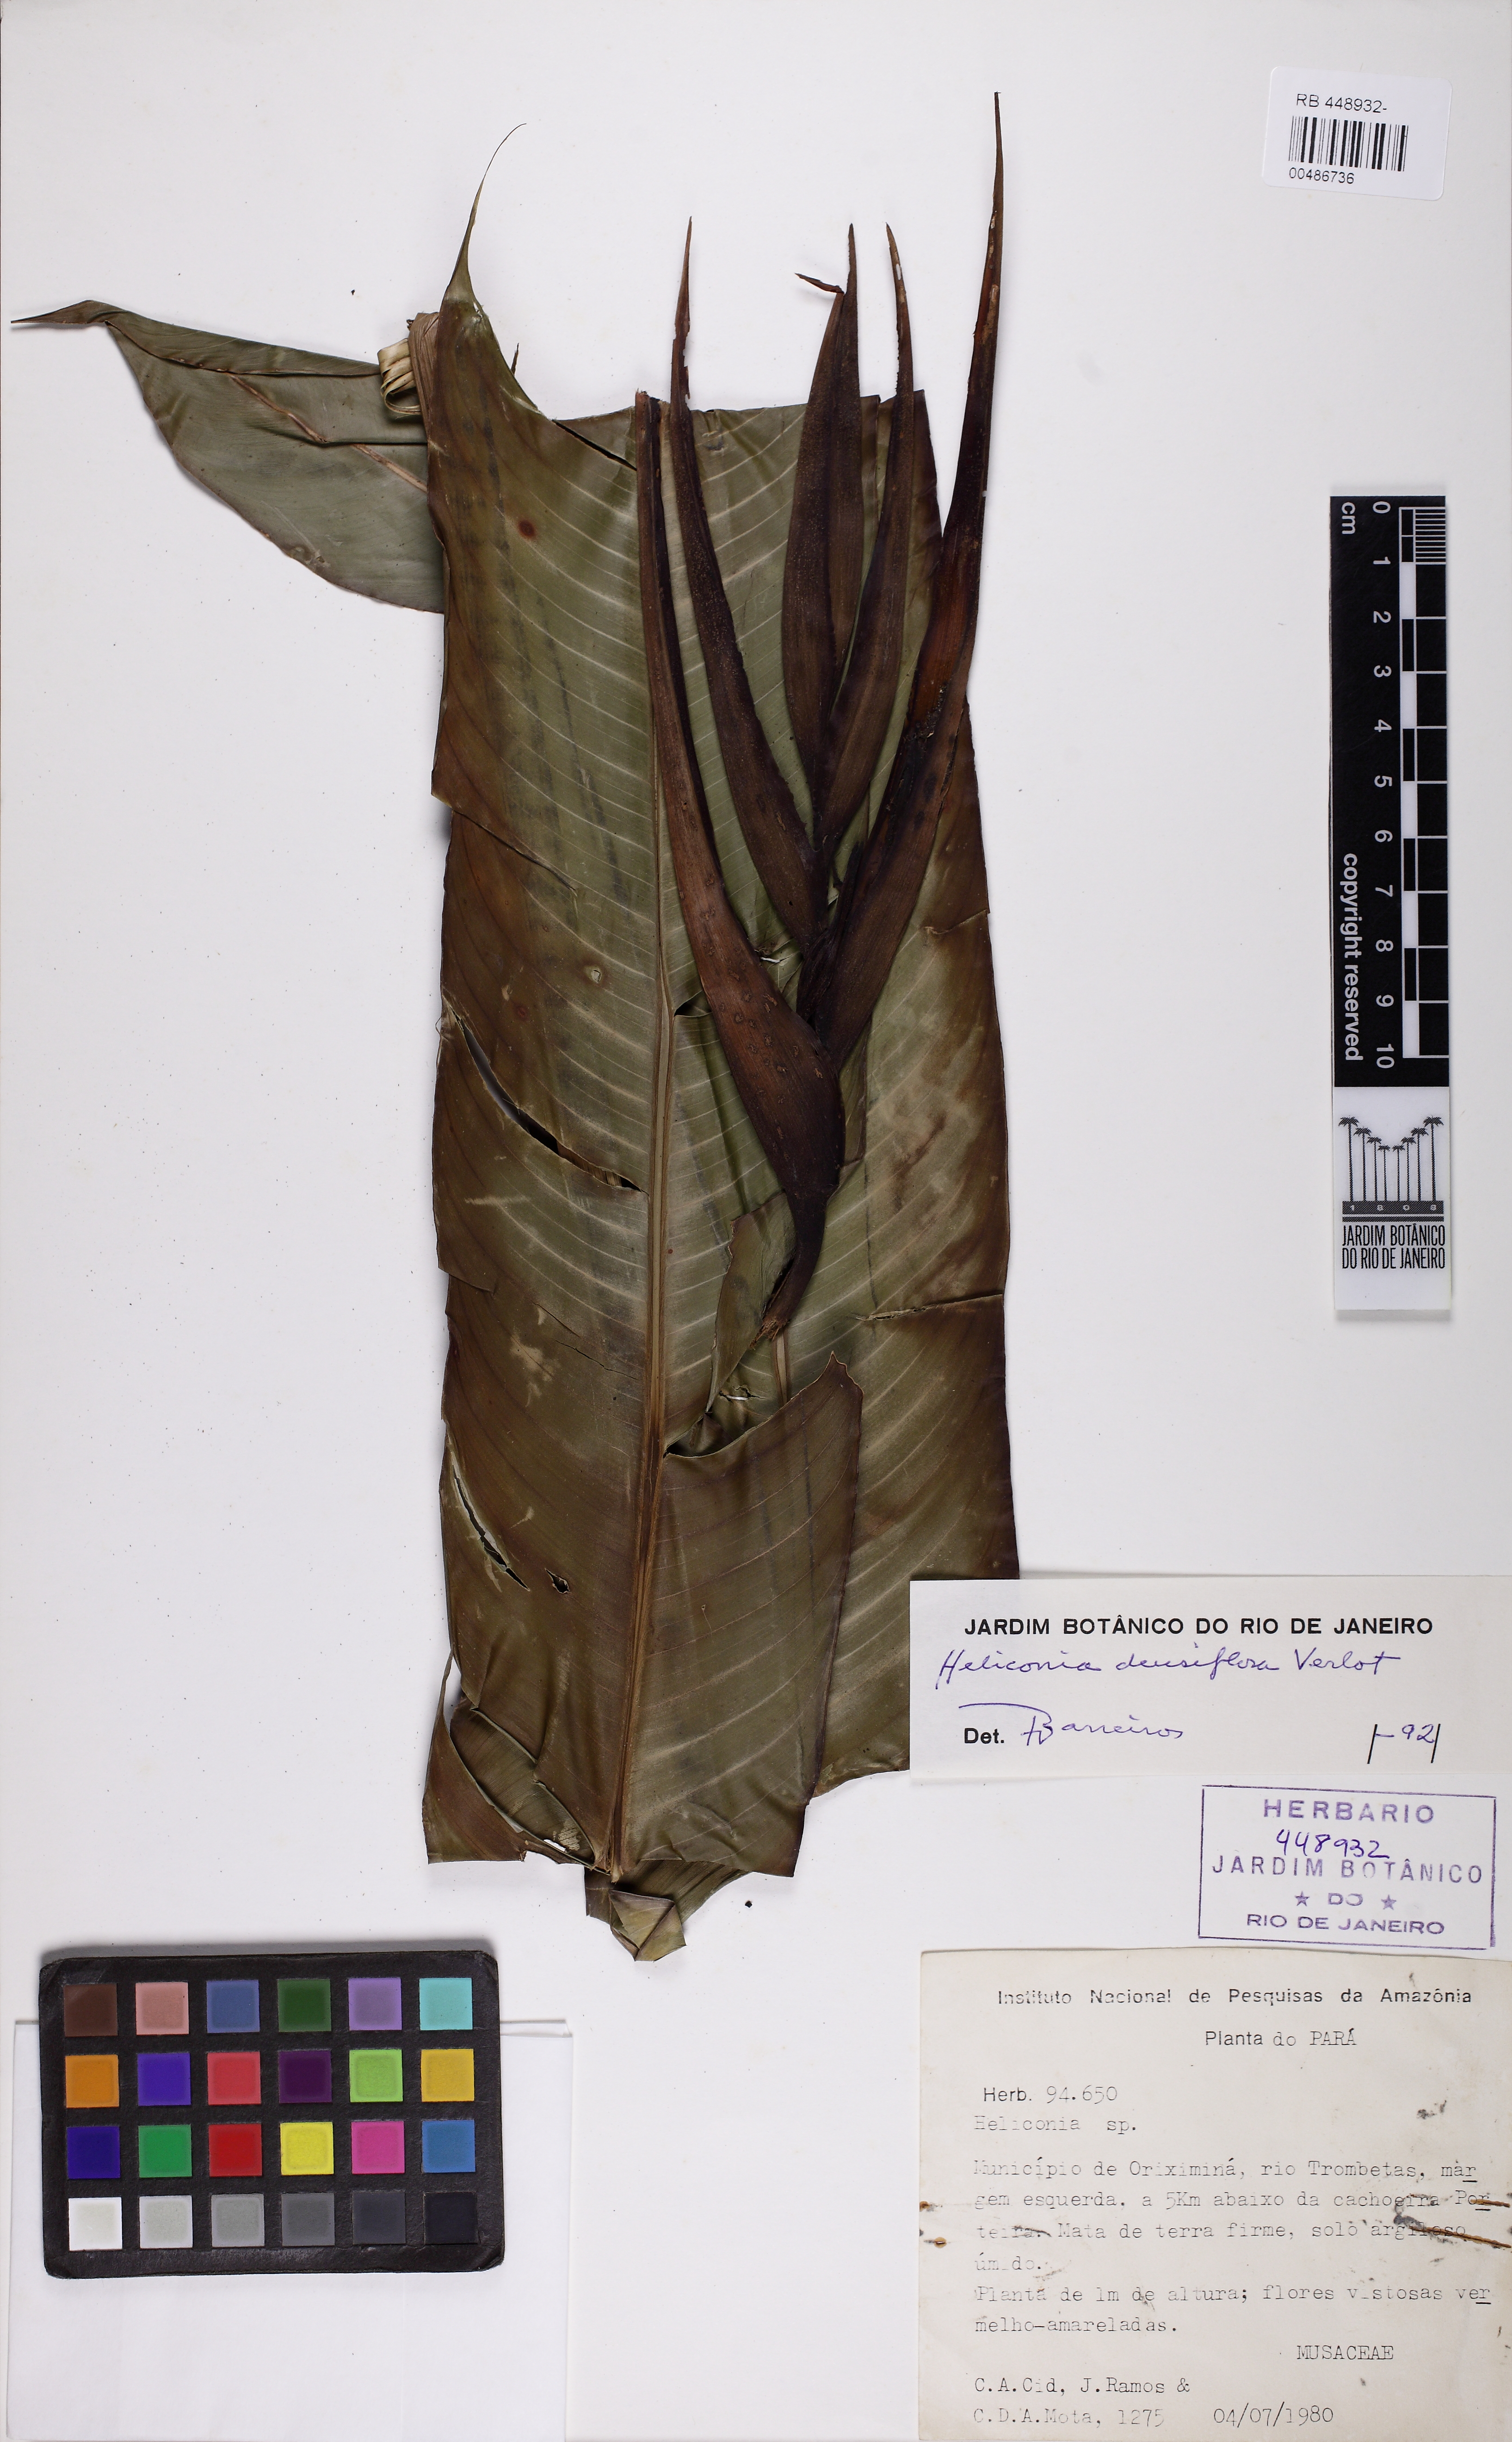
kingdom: Plantae
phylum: Tracheophyta
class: Liliopsida
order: Zingiberales
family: Heliconiaceae
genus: Heliconia
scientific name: Heliconia densiflora
